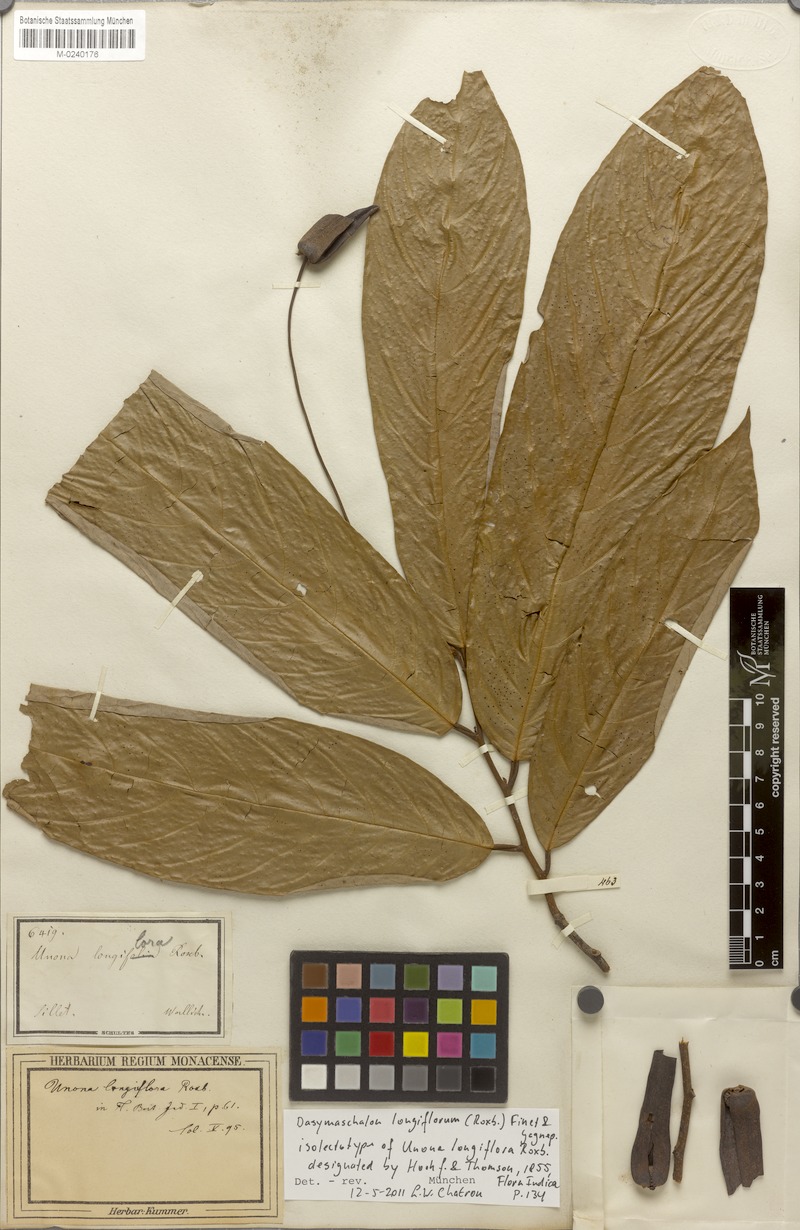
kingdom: Plantae
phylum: Tracheophyta
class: Magnoliopsida
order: Magnoliales
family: Annonaceae
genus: Dasymaschalon
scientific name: Dasymaschalon longiflorum
